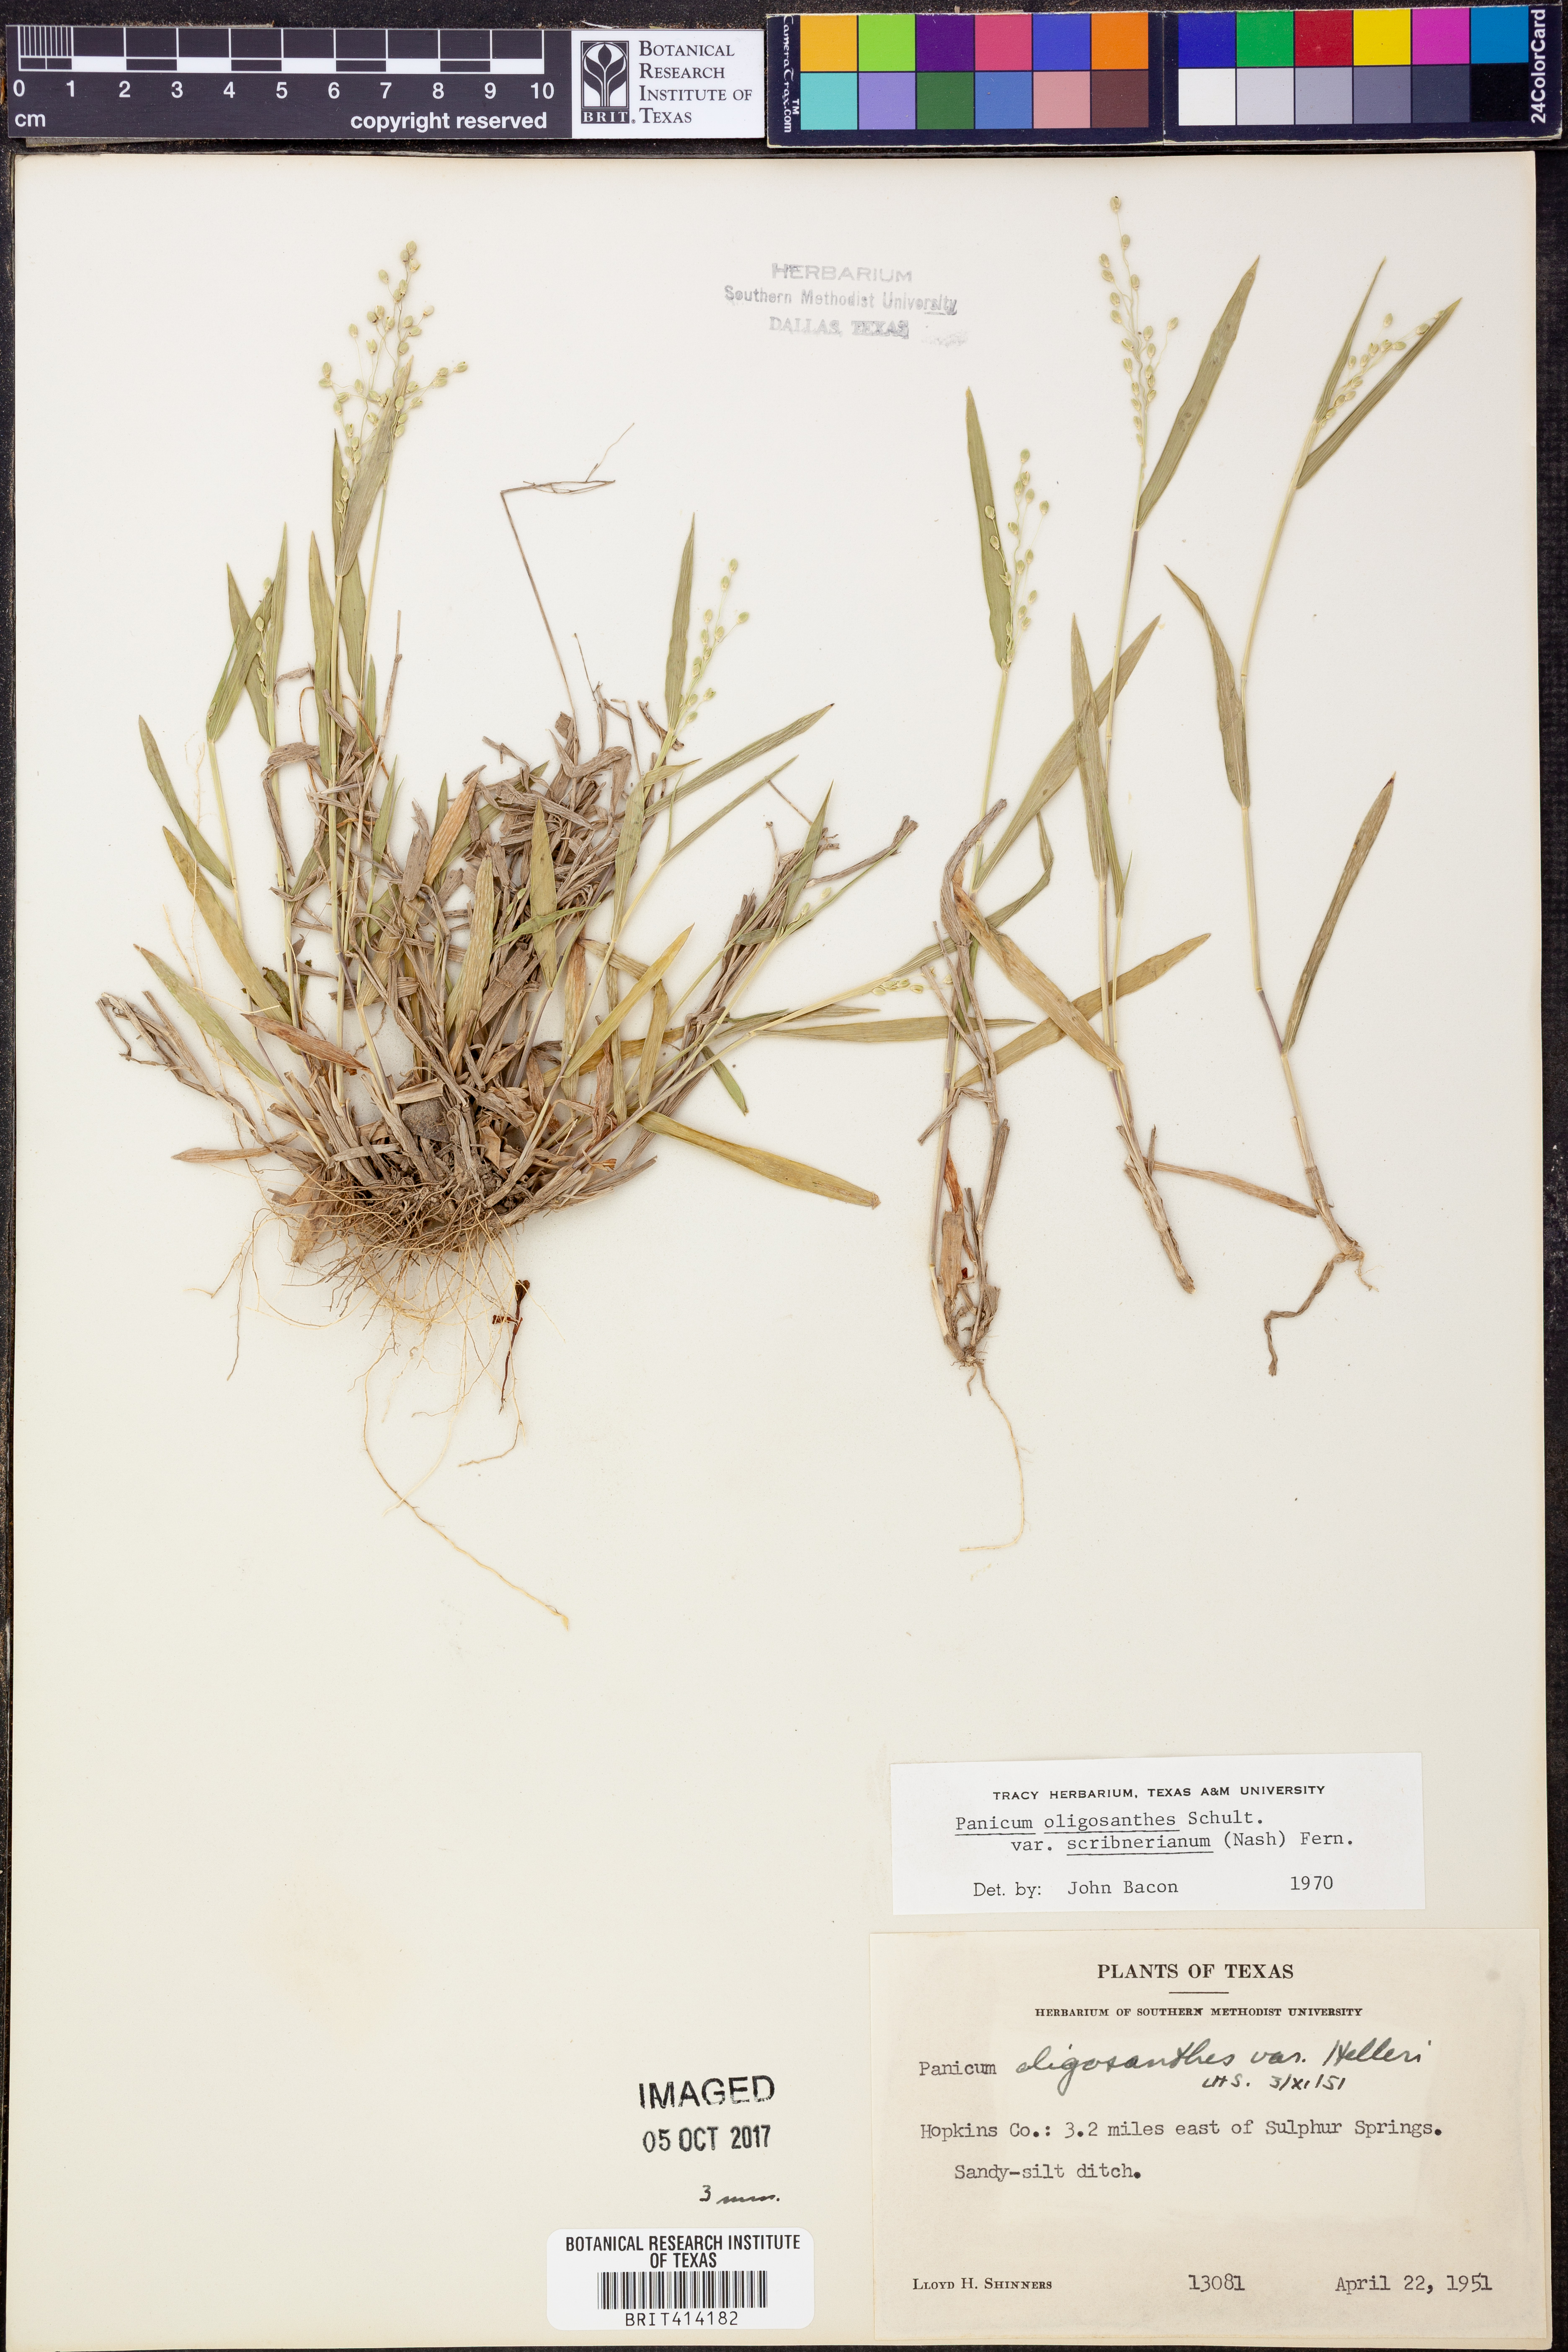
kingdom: Plantae
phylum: Tracheophyta
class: Liliopsida
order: Poales
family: Poaceae
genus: Dichanthelium
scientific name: Dichanthelium scribnerianum
